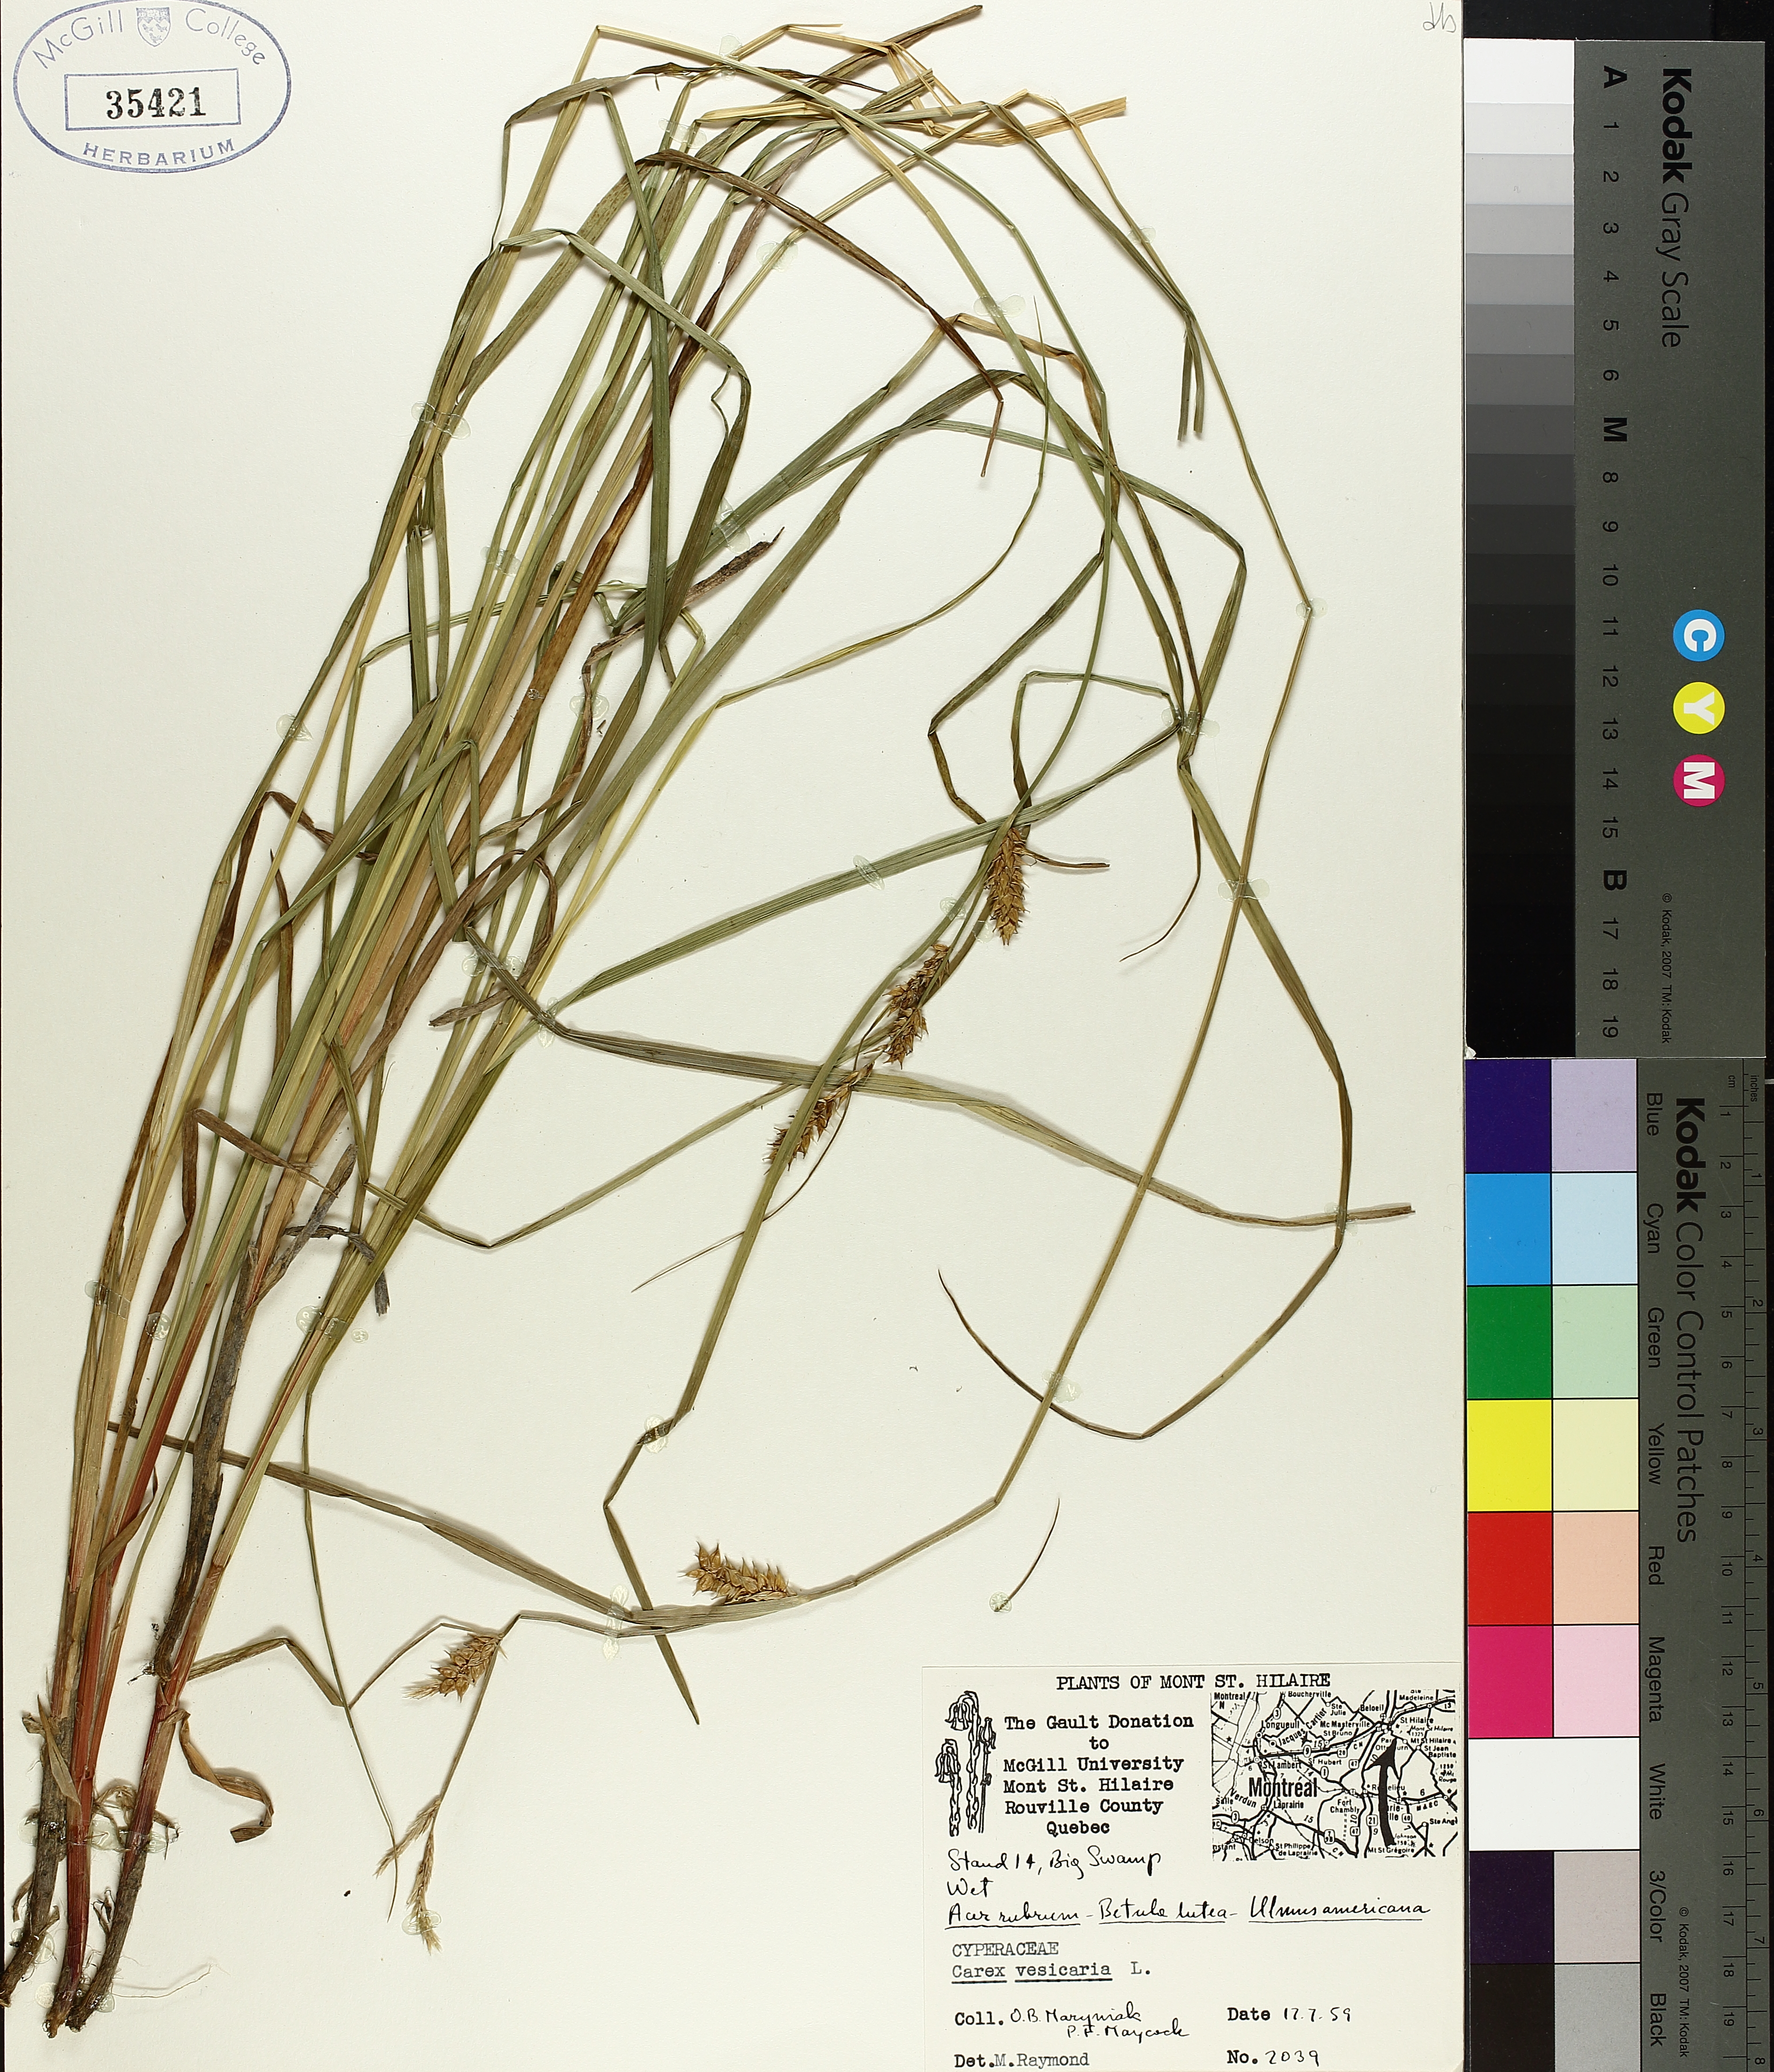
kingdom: Plantae
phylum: Tracheophyta
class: Liliopsida
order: Poales
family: Cyperaceae
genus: Carex
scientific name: Carex vesicaria
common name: Bladder-sedge
